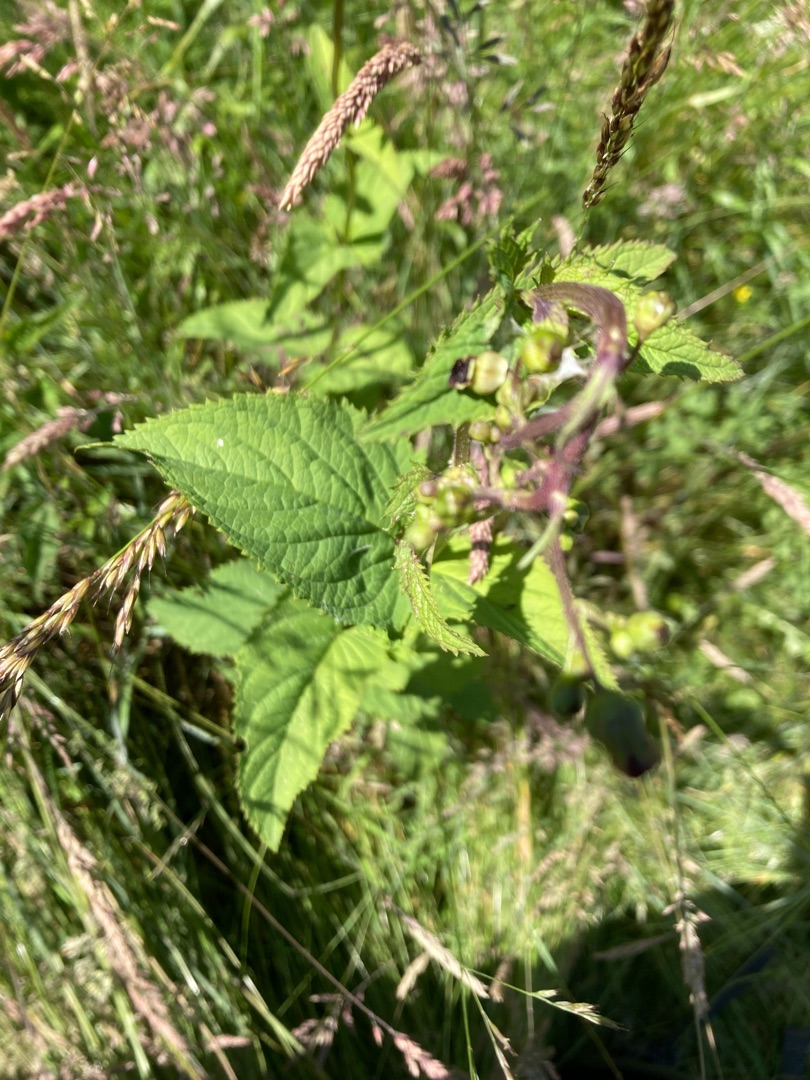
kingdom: Plantae
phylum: Tracheophyta
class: Magnoliopsida
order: Lamiales
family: Scrophulariaceae
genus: Scrophularia
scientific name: Scrophularia nodosa
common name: Knoldet brunrod
